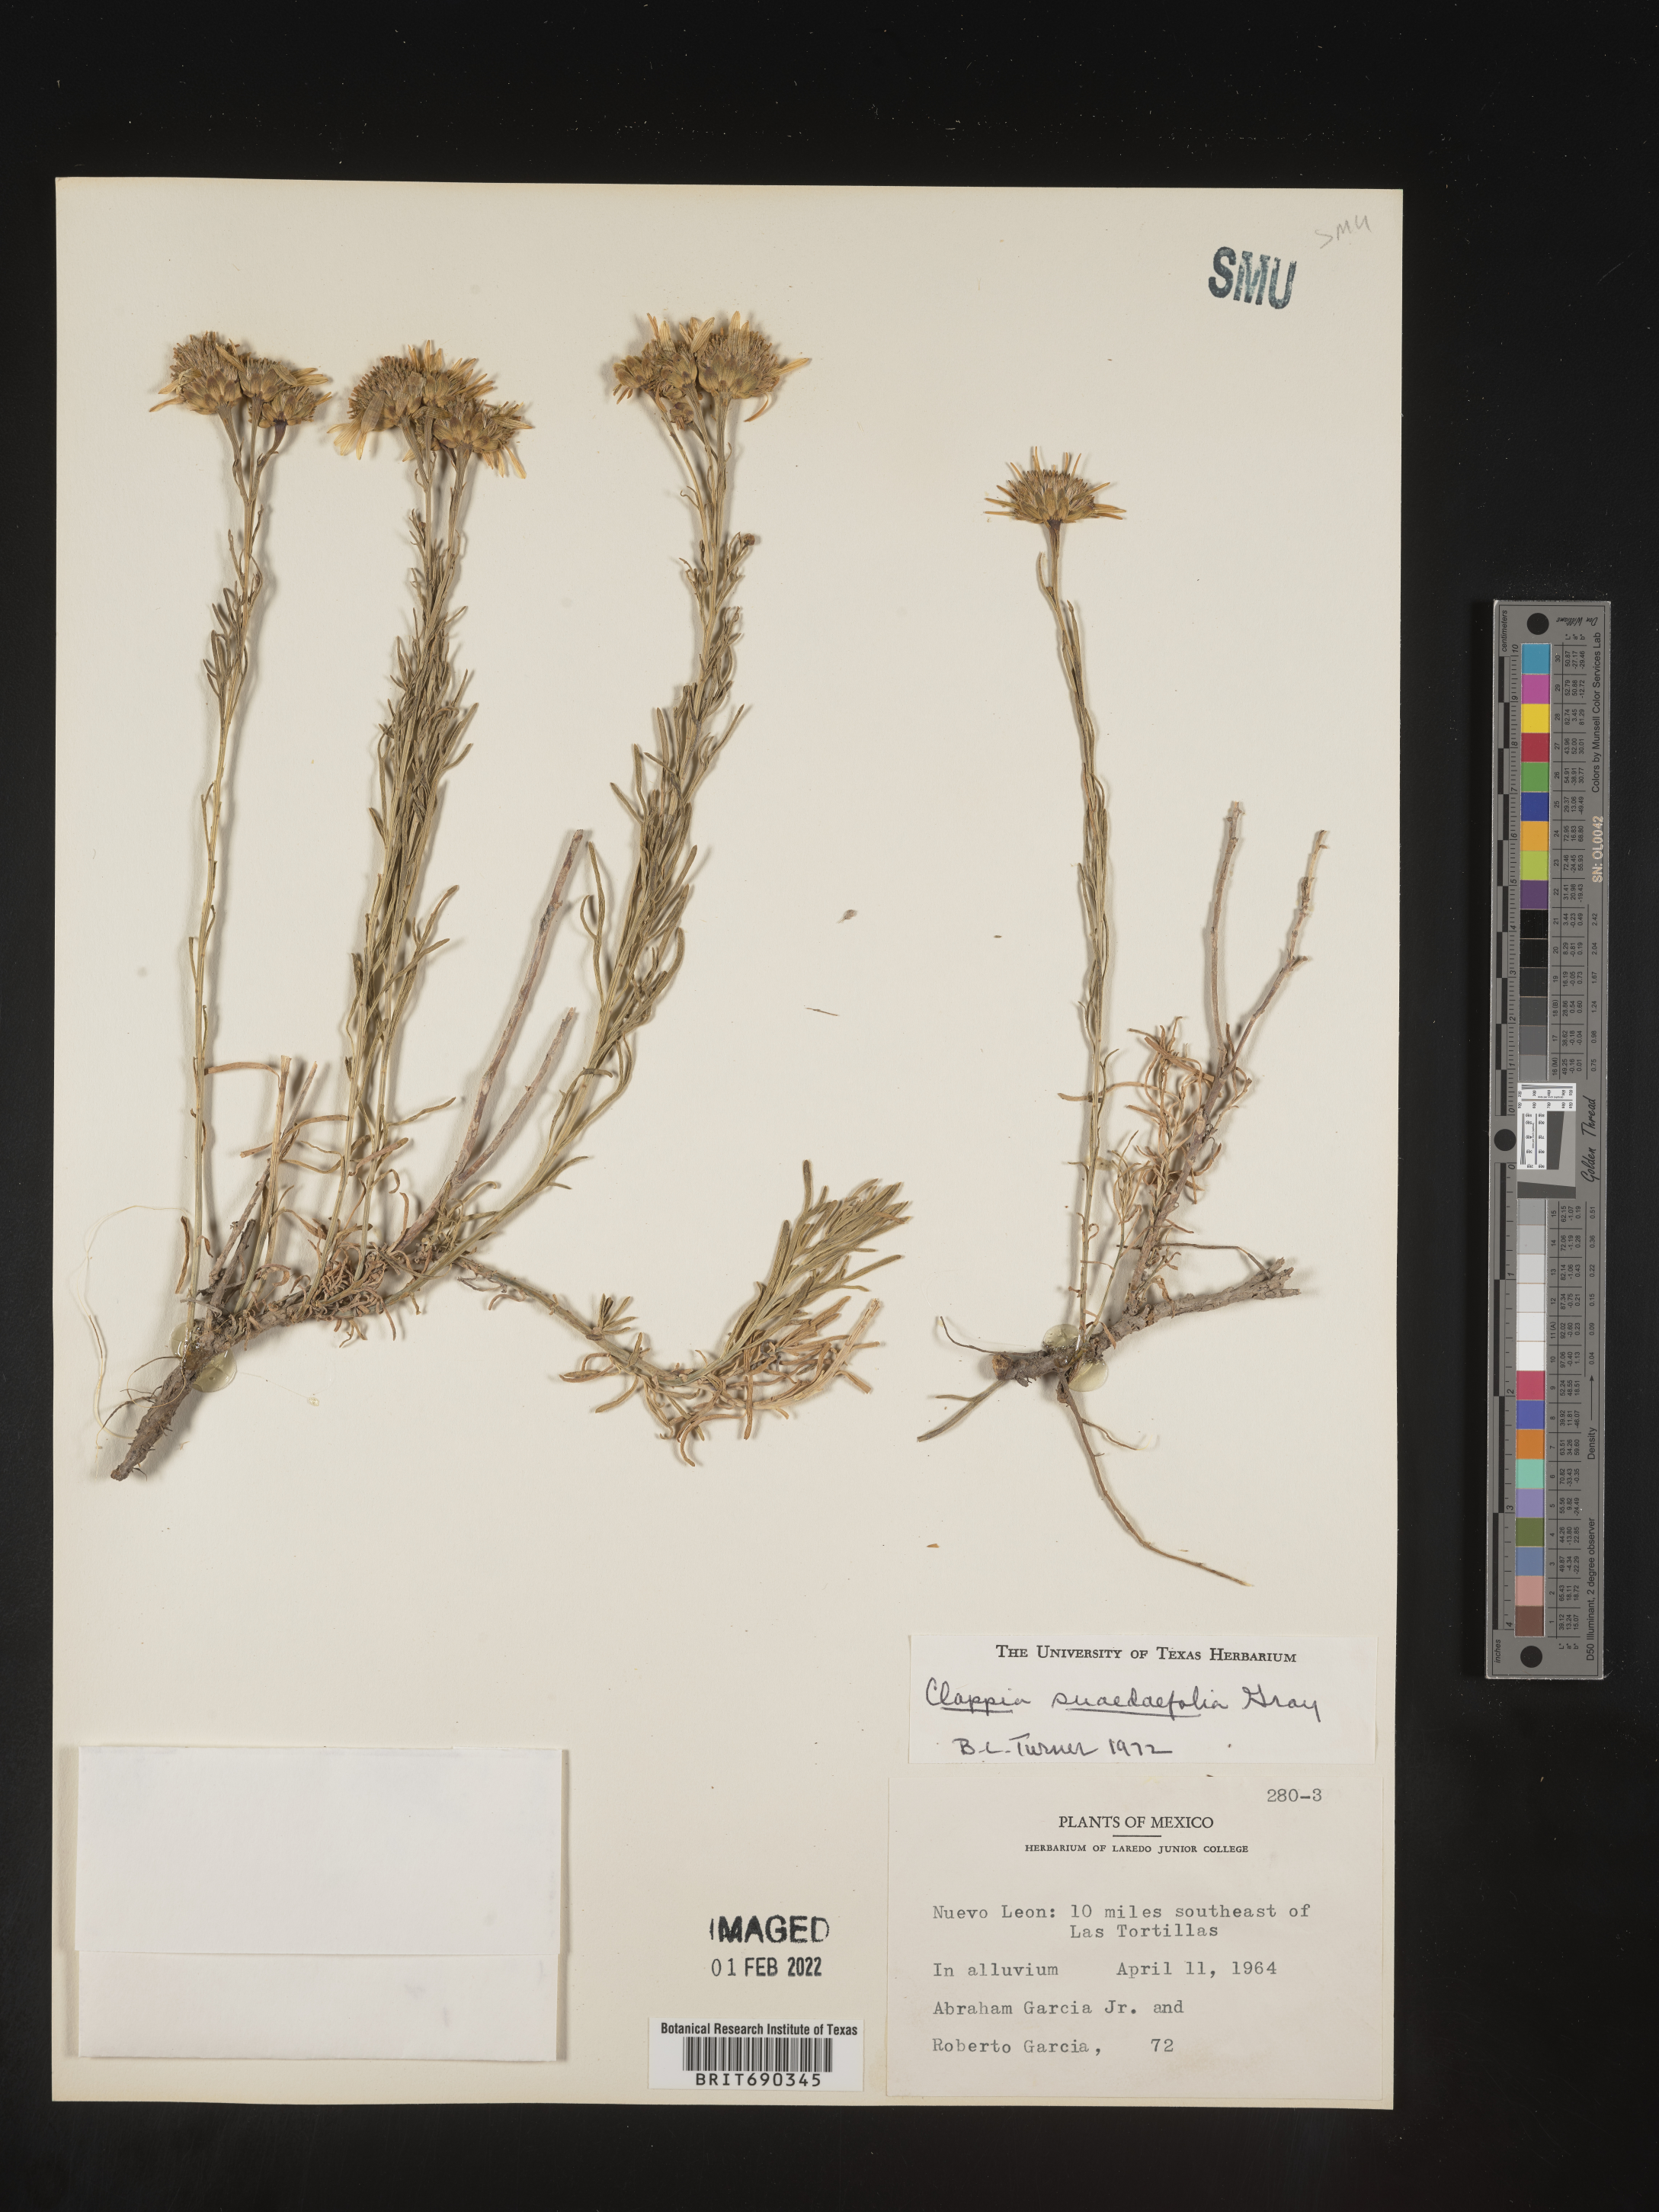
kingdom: Plantae
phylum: Tracheophyta
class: Magnoliopsida
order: Asterales
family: Asteraceae
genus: Clappia
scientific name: Clappia
